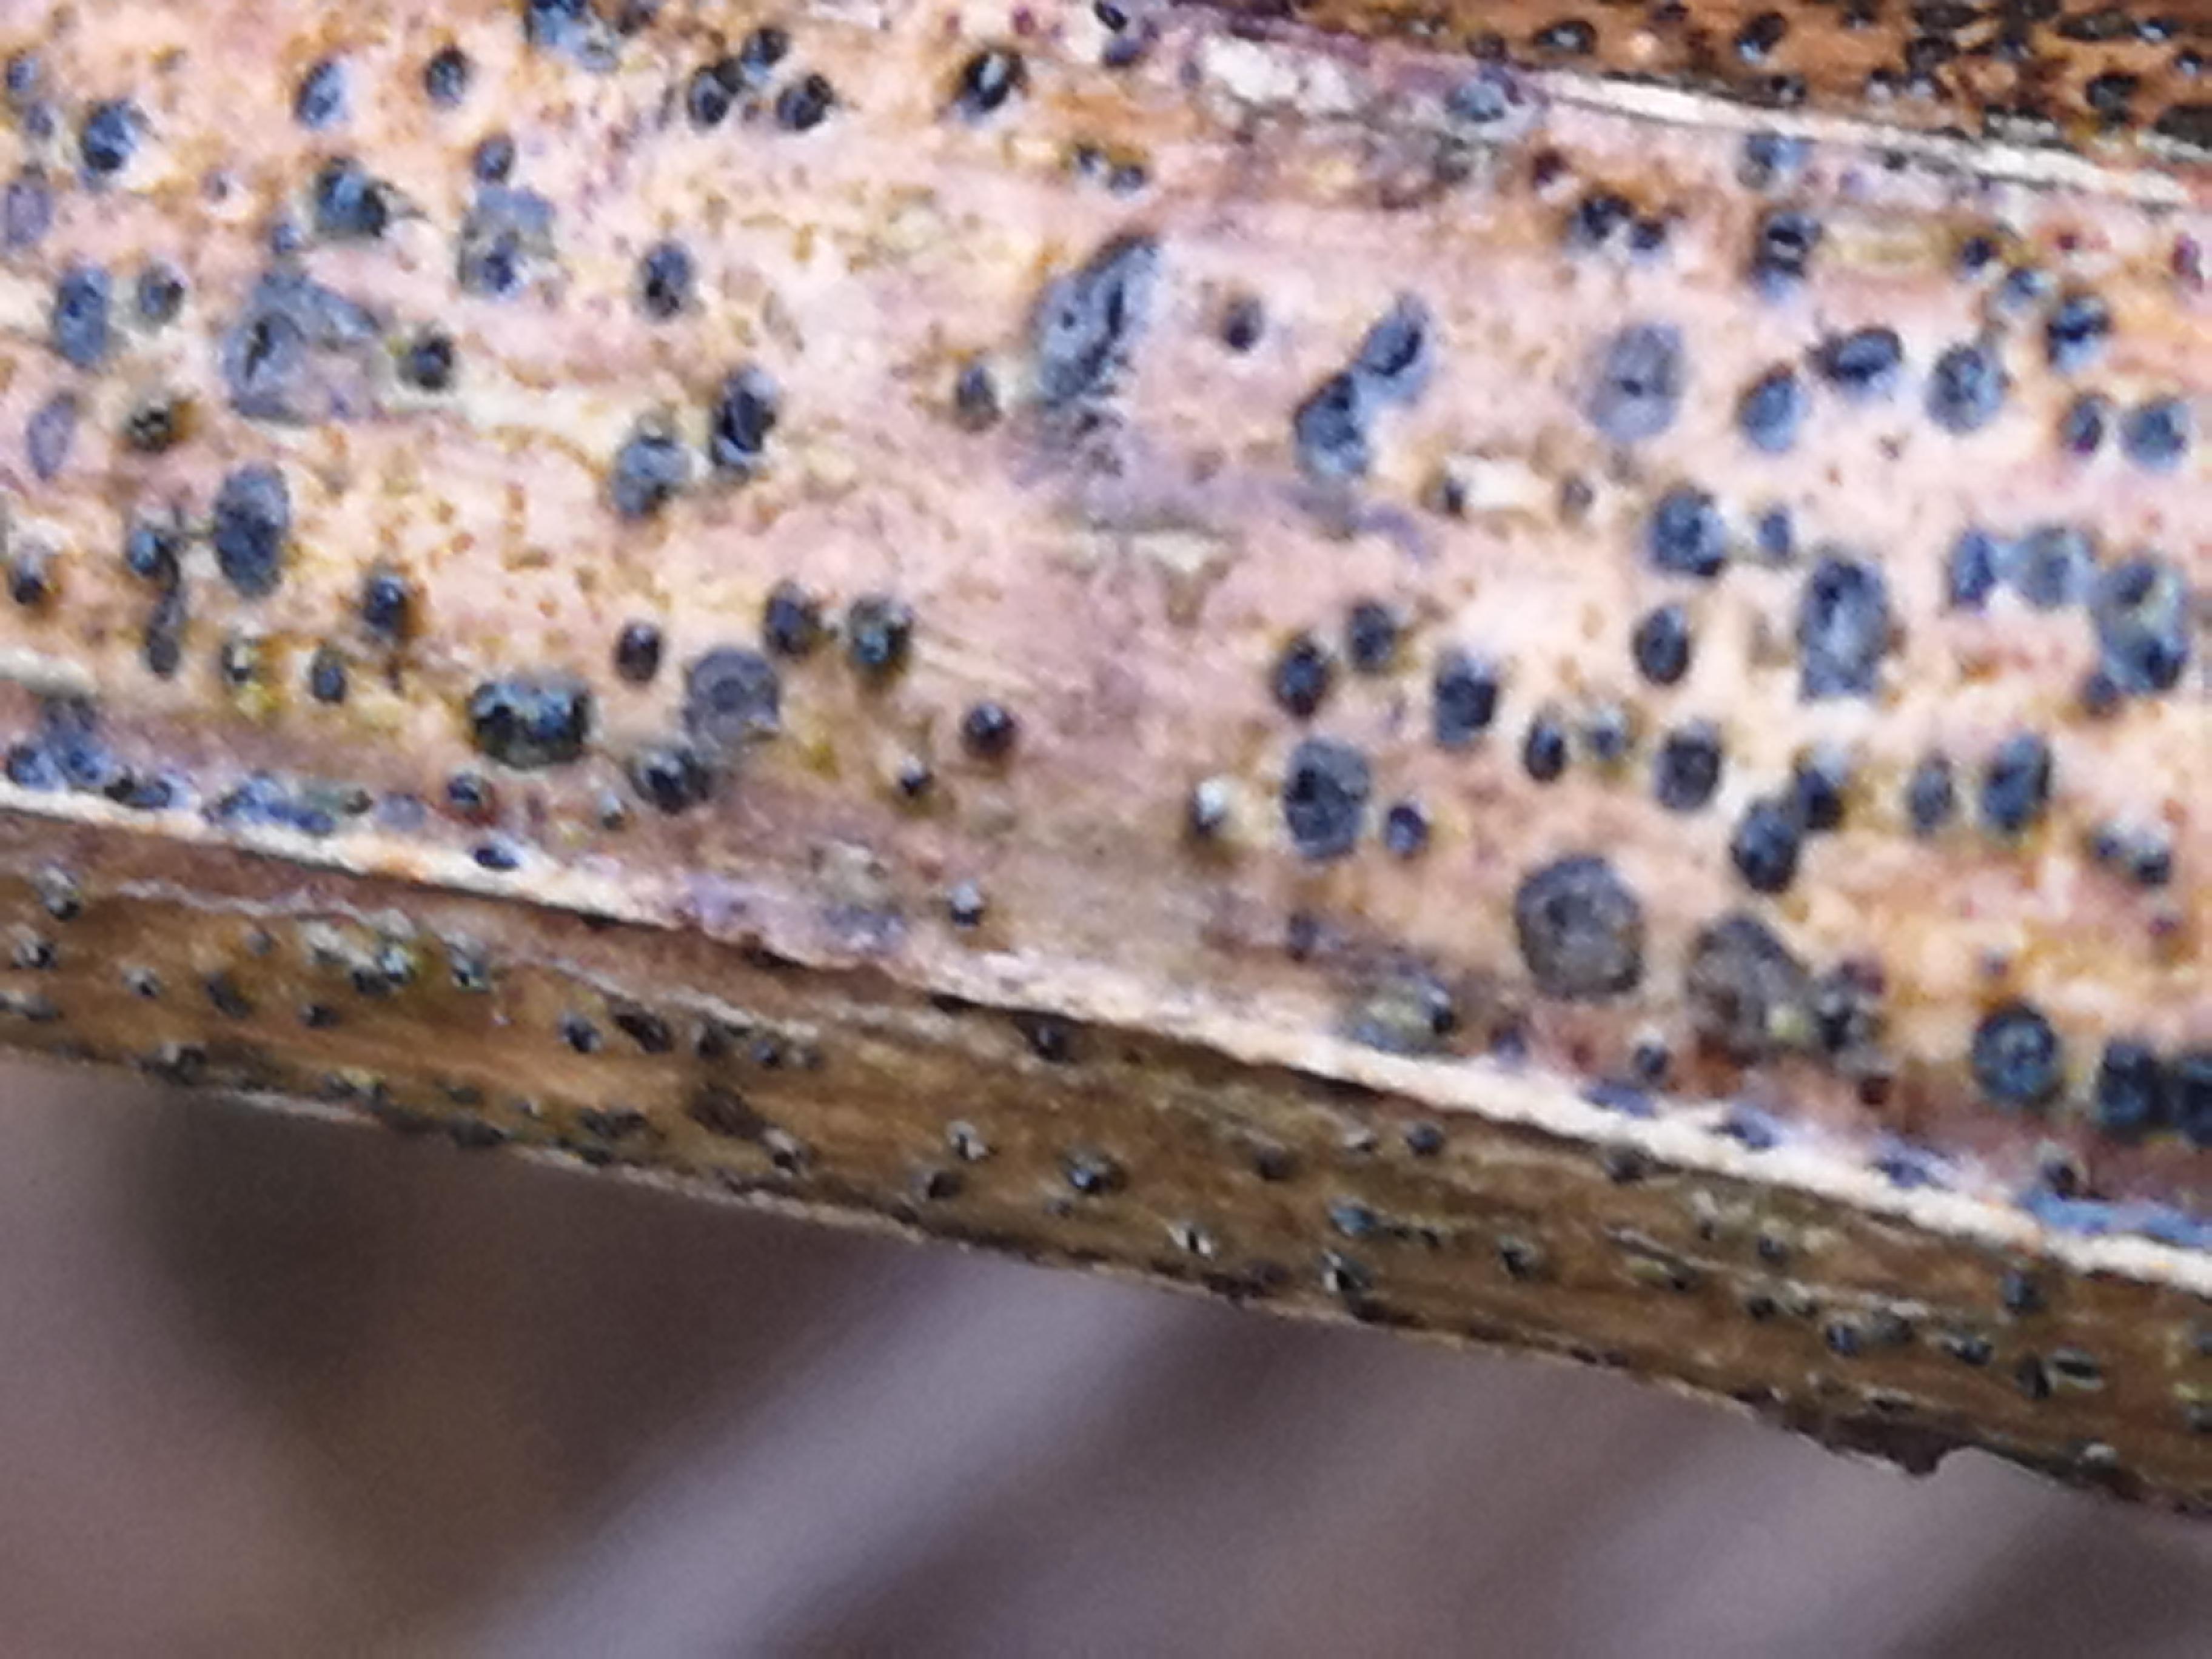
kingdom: Fungi
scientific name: Fungi
